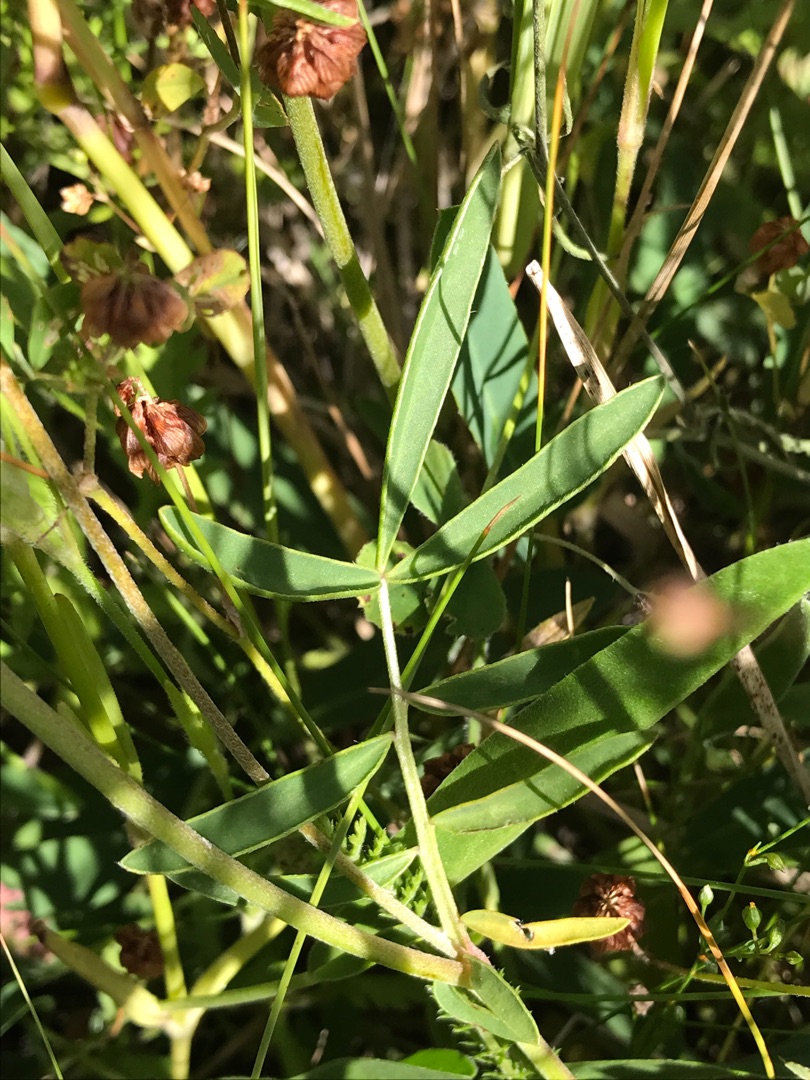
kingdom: Plantae
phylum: Tracheophyta
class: Magnoliopsida
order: Fabales
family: Fabaceae
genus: Anthyllis
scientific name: Anthyllis vulneraria
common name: Rundbælg
